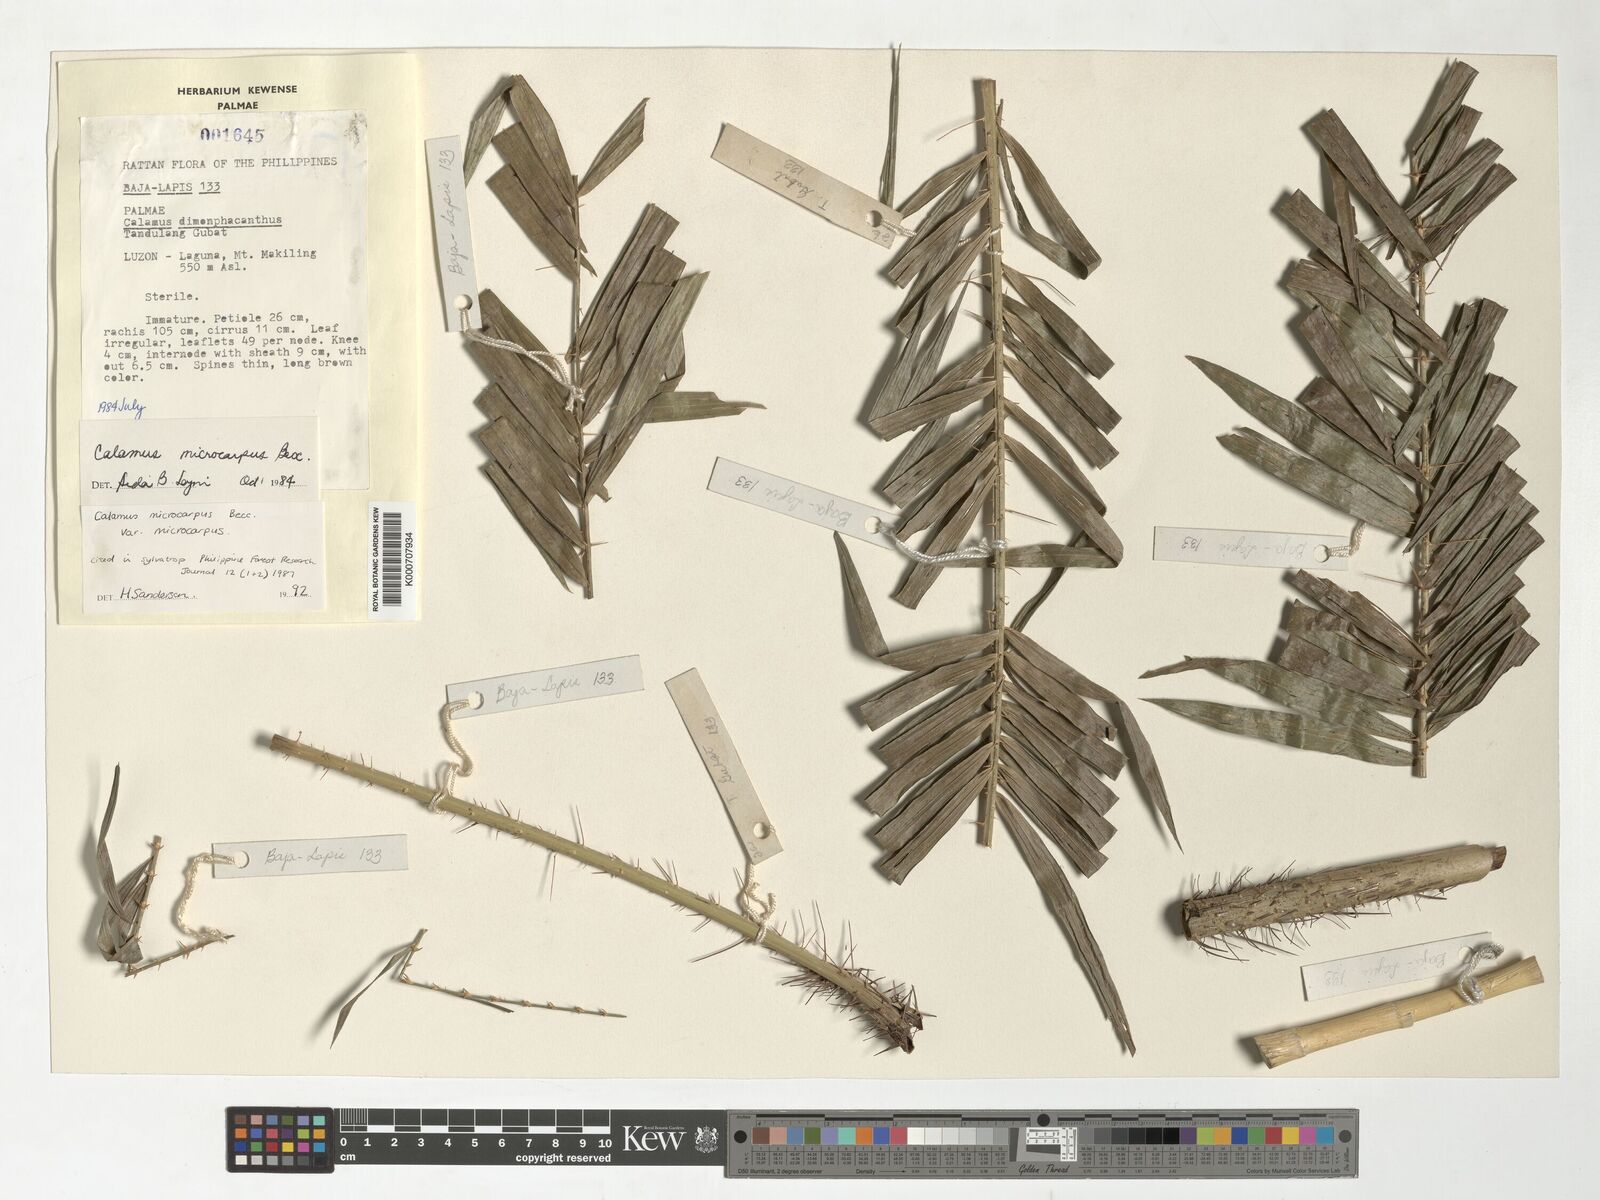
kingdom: Plantae
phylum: Tracheophyta
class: Liliopsida
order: Arecales
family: Arecaceae
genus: Calamus
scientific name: Calamus siphonospathus
